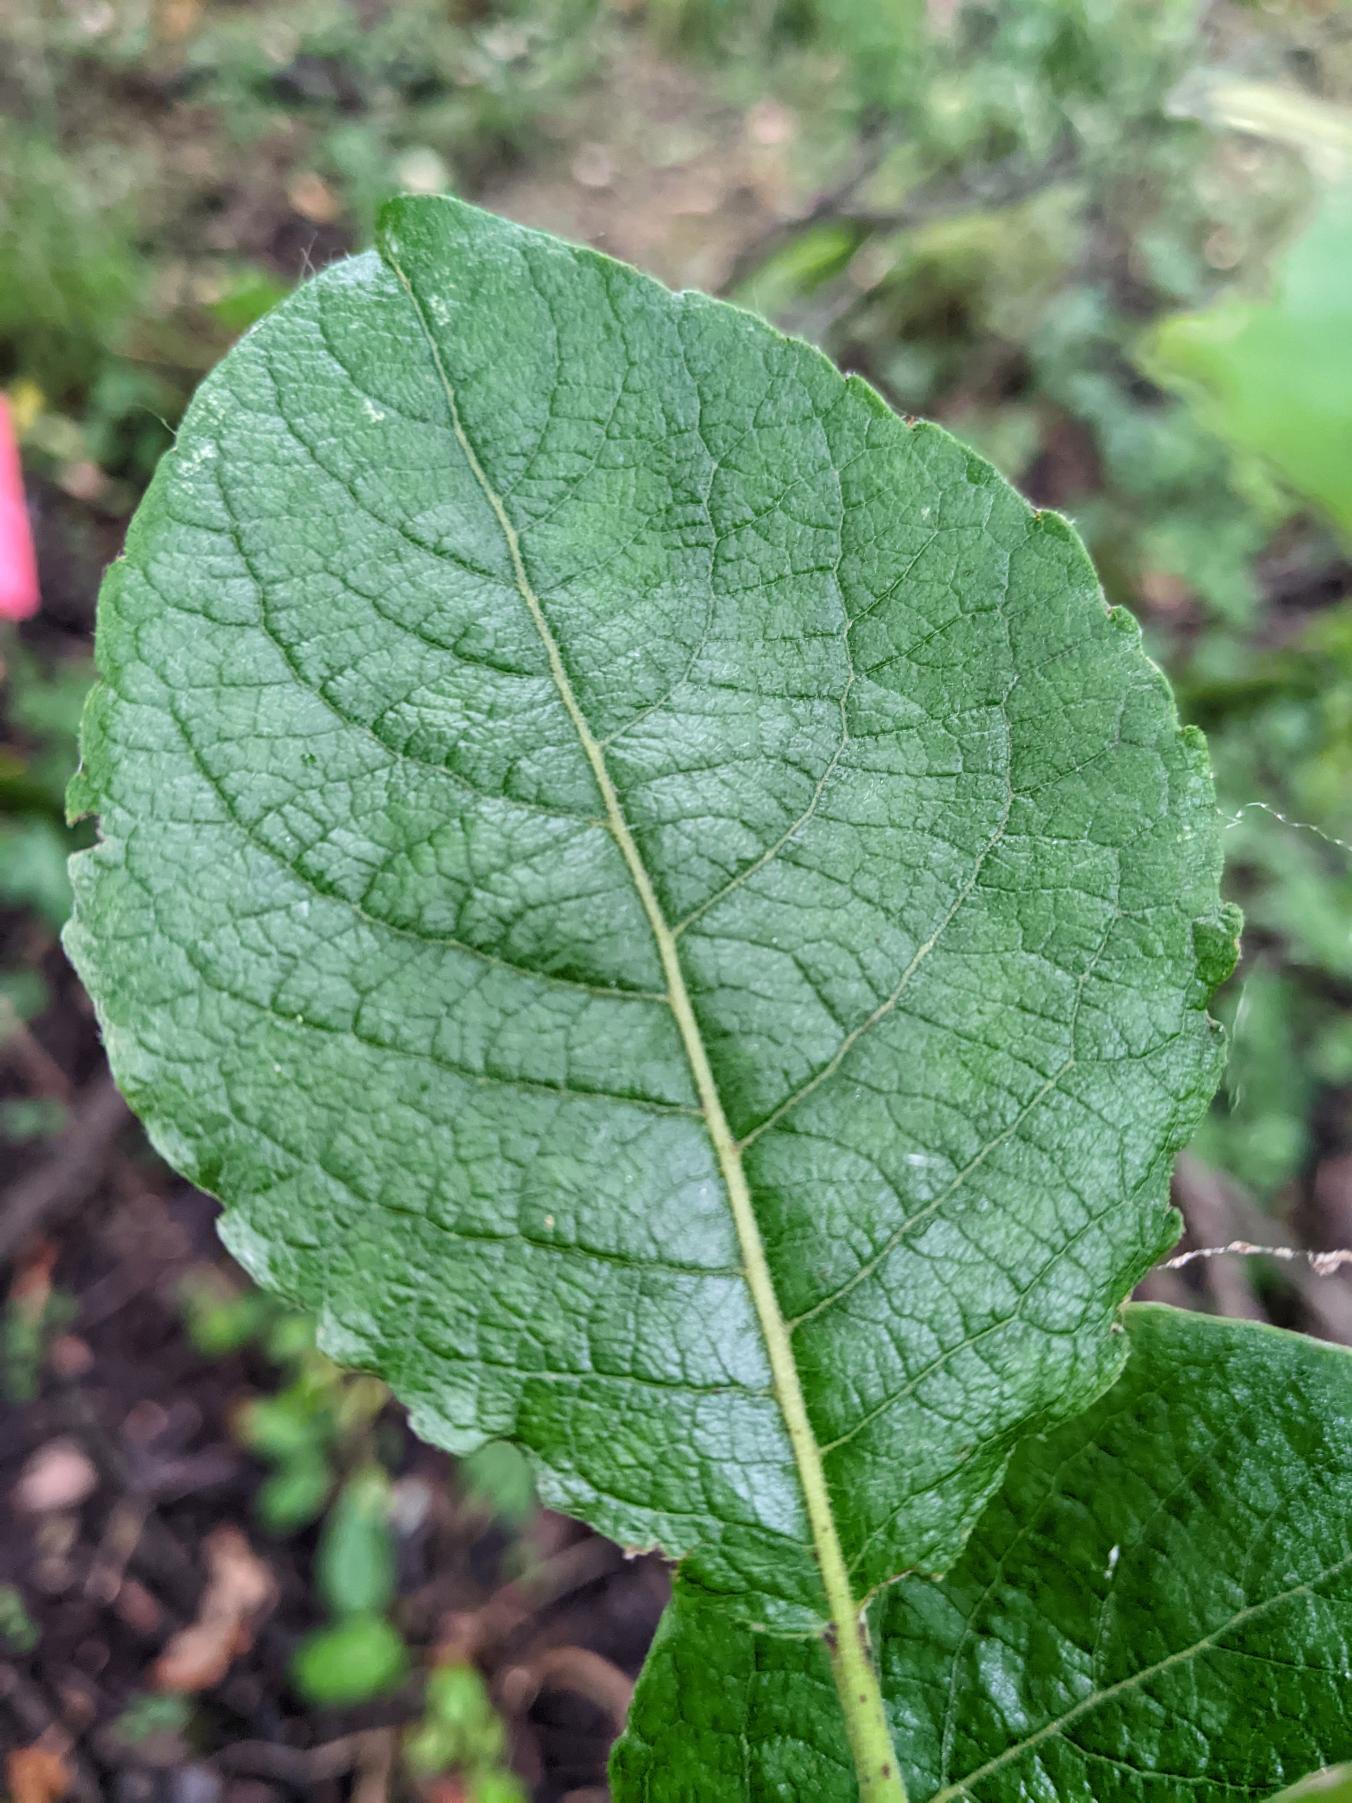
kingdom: Plantae
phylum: Tracheophyta
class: Magnoliopsida
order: Malpighiales
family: Salicaceae
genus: Salix
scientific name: Salix caprea
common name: Selje-pil
